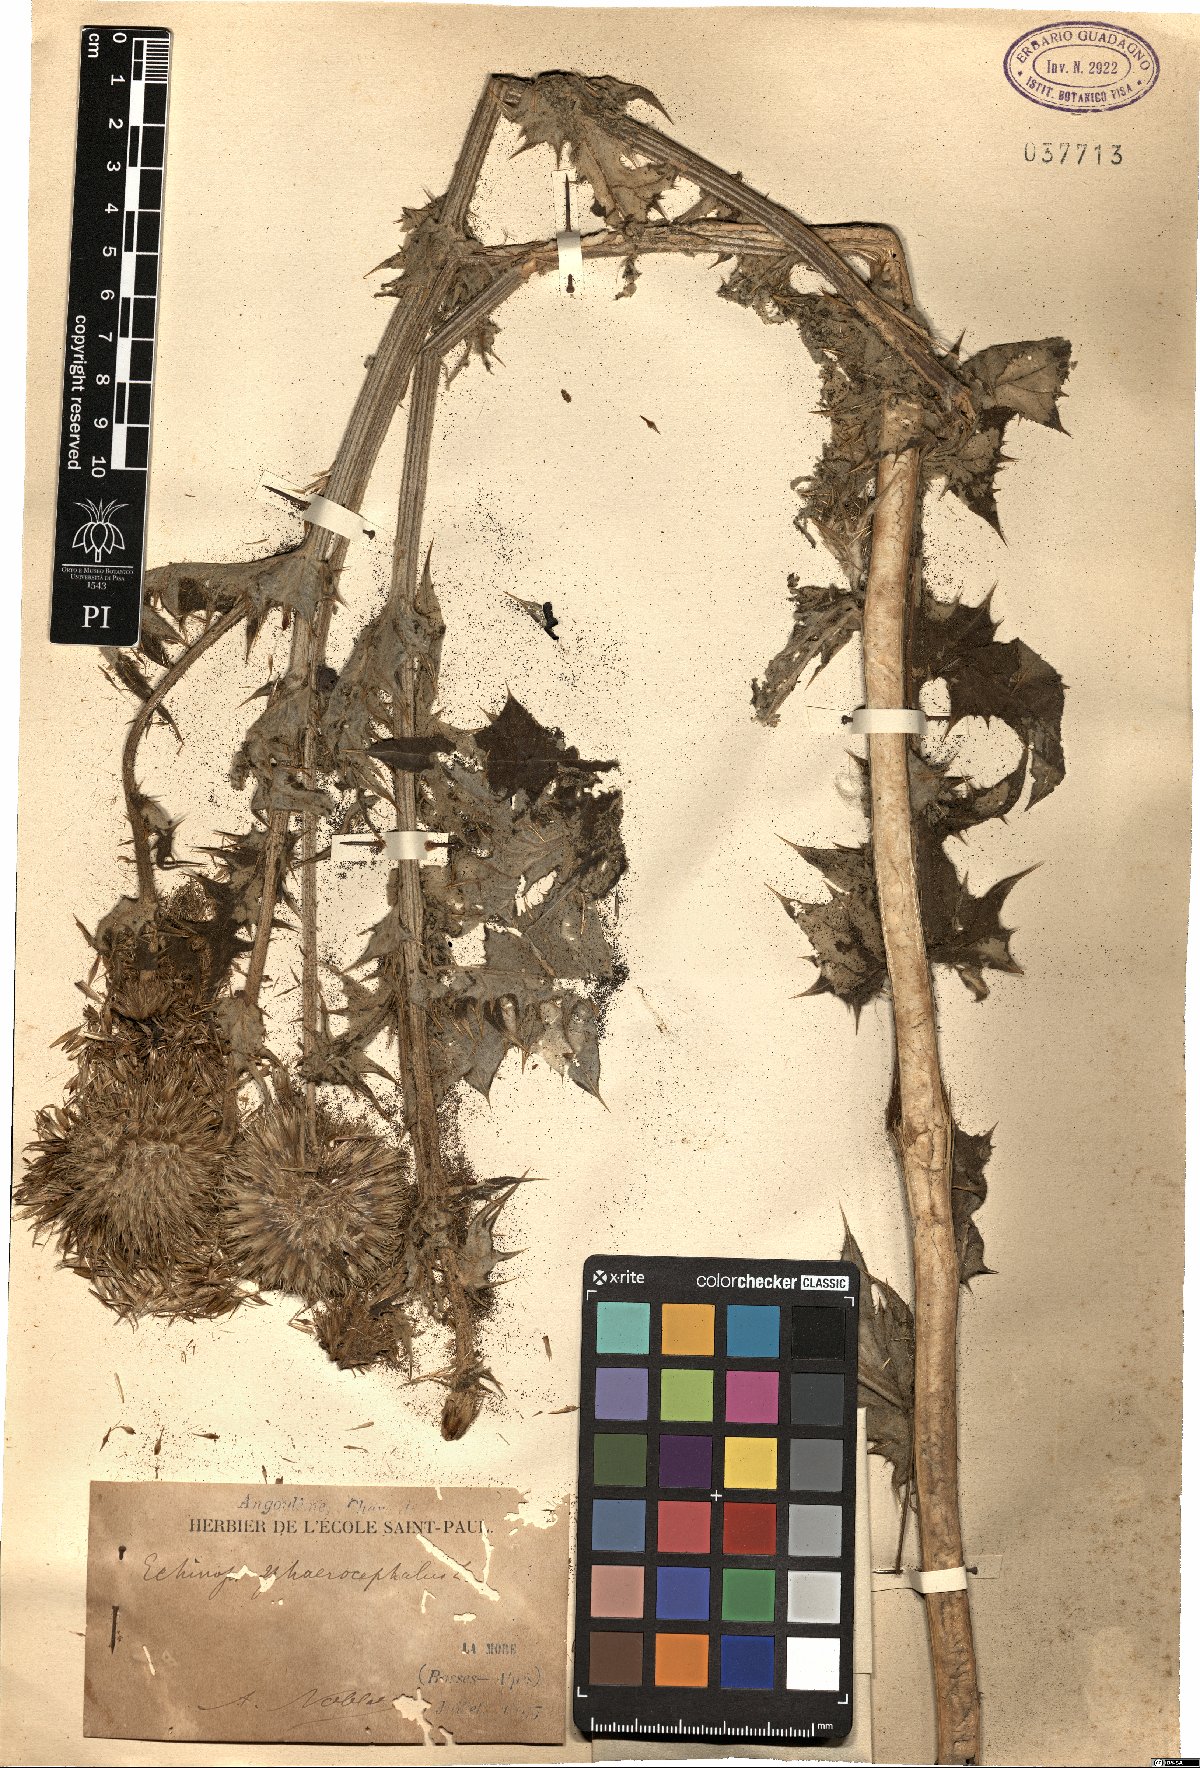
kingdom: Plantae
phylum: Tracheophyta
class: Magnoliopsida
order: Asterales
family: Asteraceae
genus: Echinops
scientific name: Echinops sphaerocephalus
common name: Glandular globe-thistle
